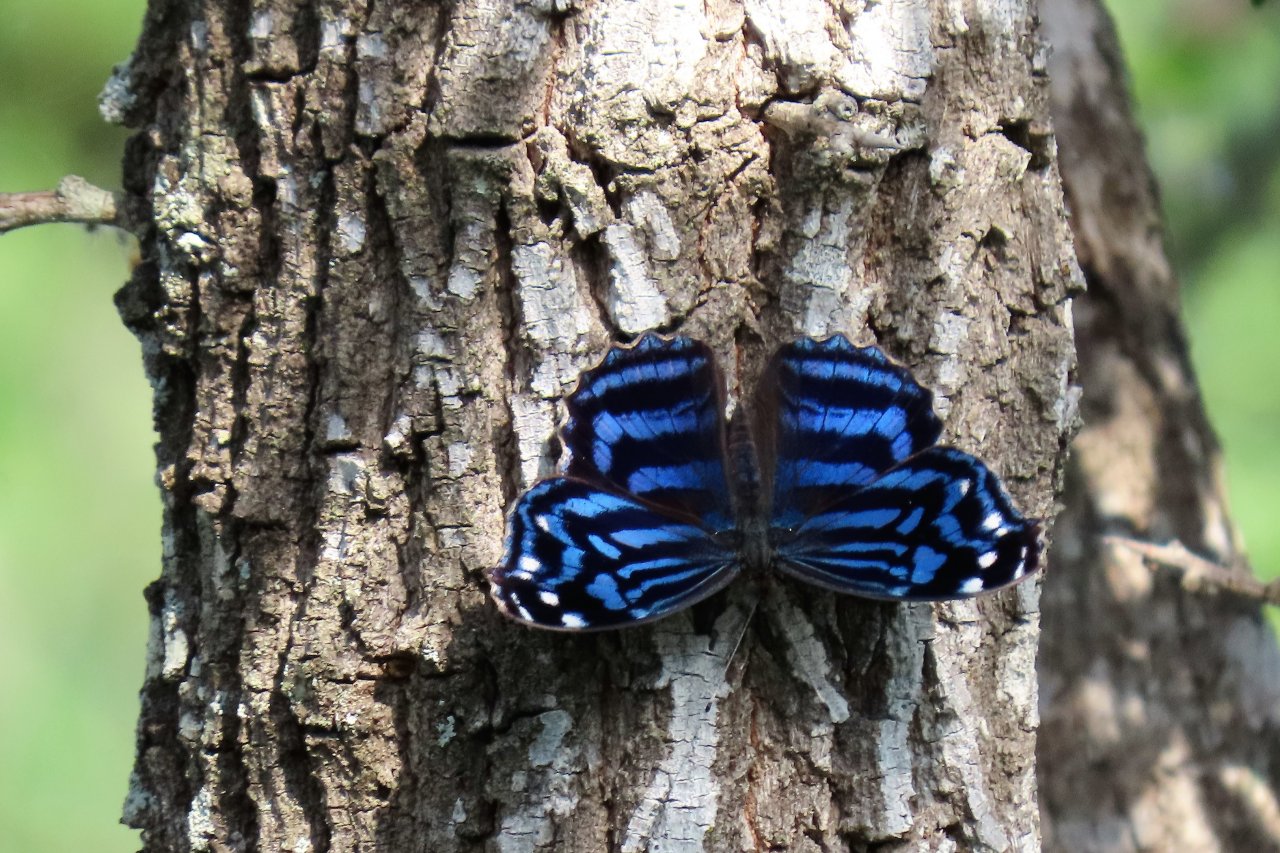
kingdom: Animalia
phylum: Arthropoda
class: Insecta
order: Lepidoptera
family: Nymphalidae
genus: Myscelia
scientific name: Myscelia ethusa
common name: Mexican Bluewing
